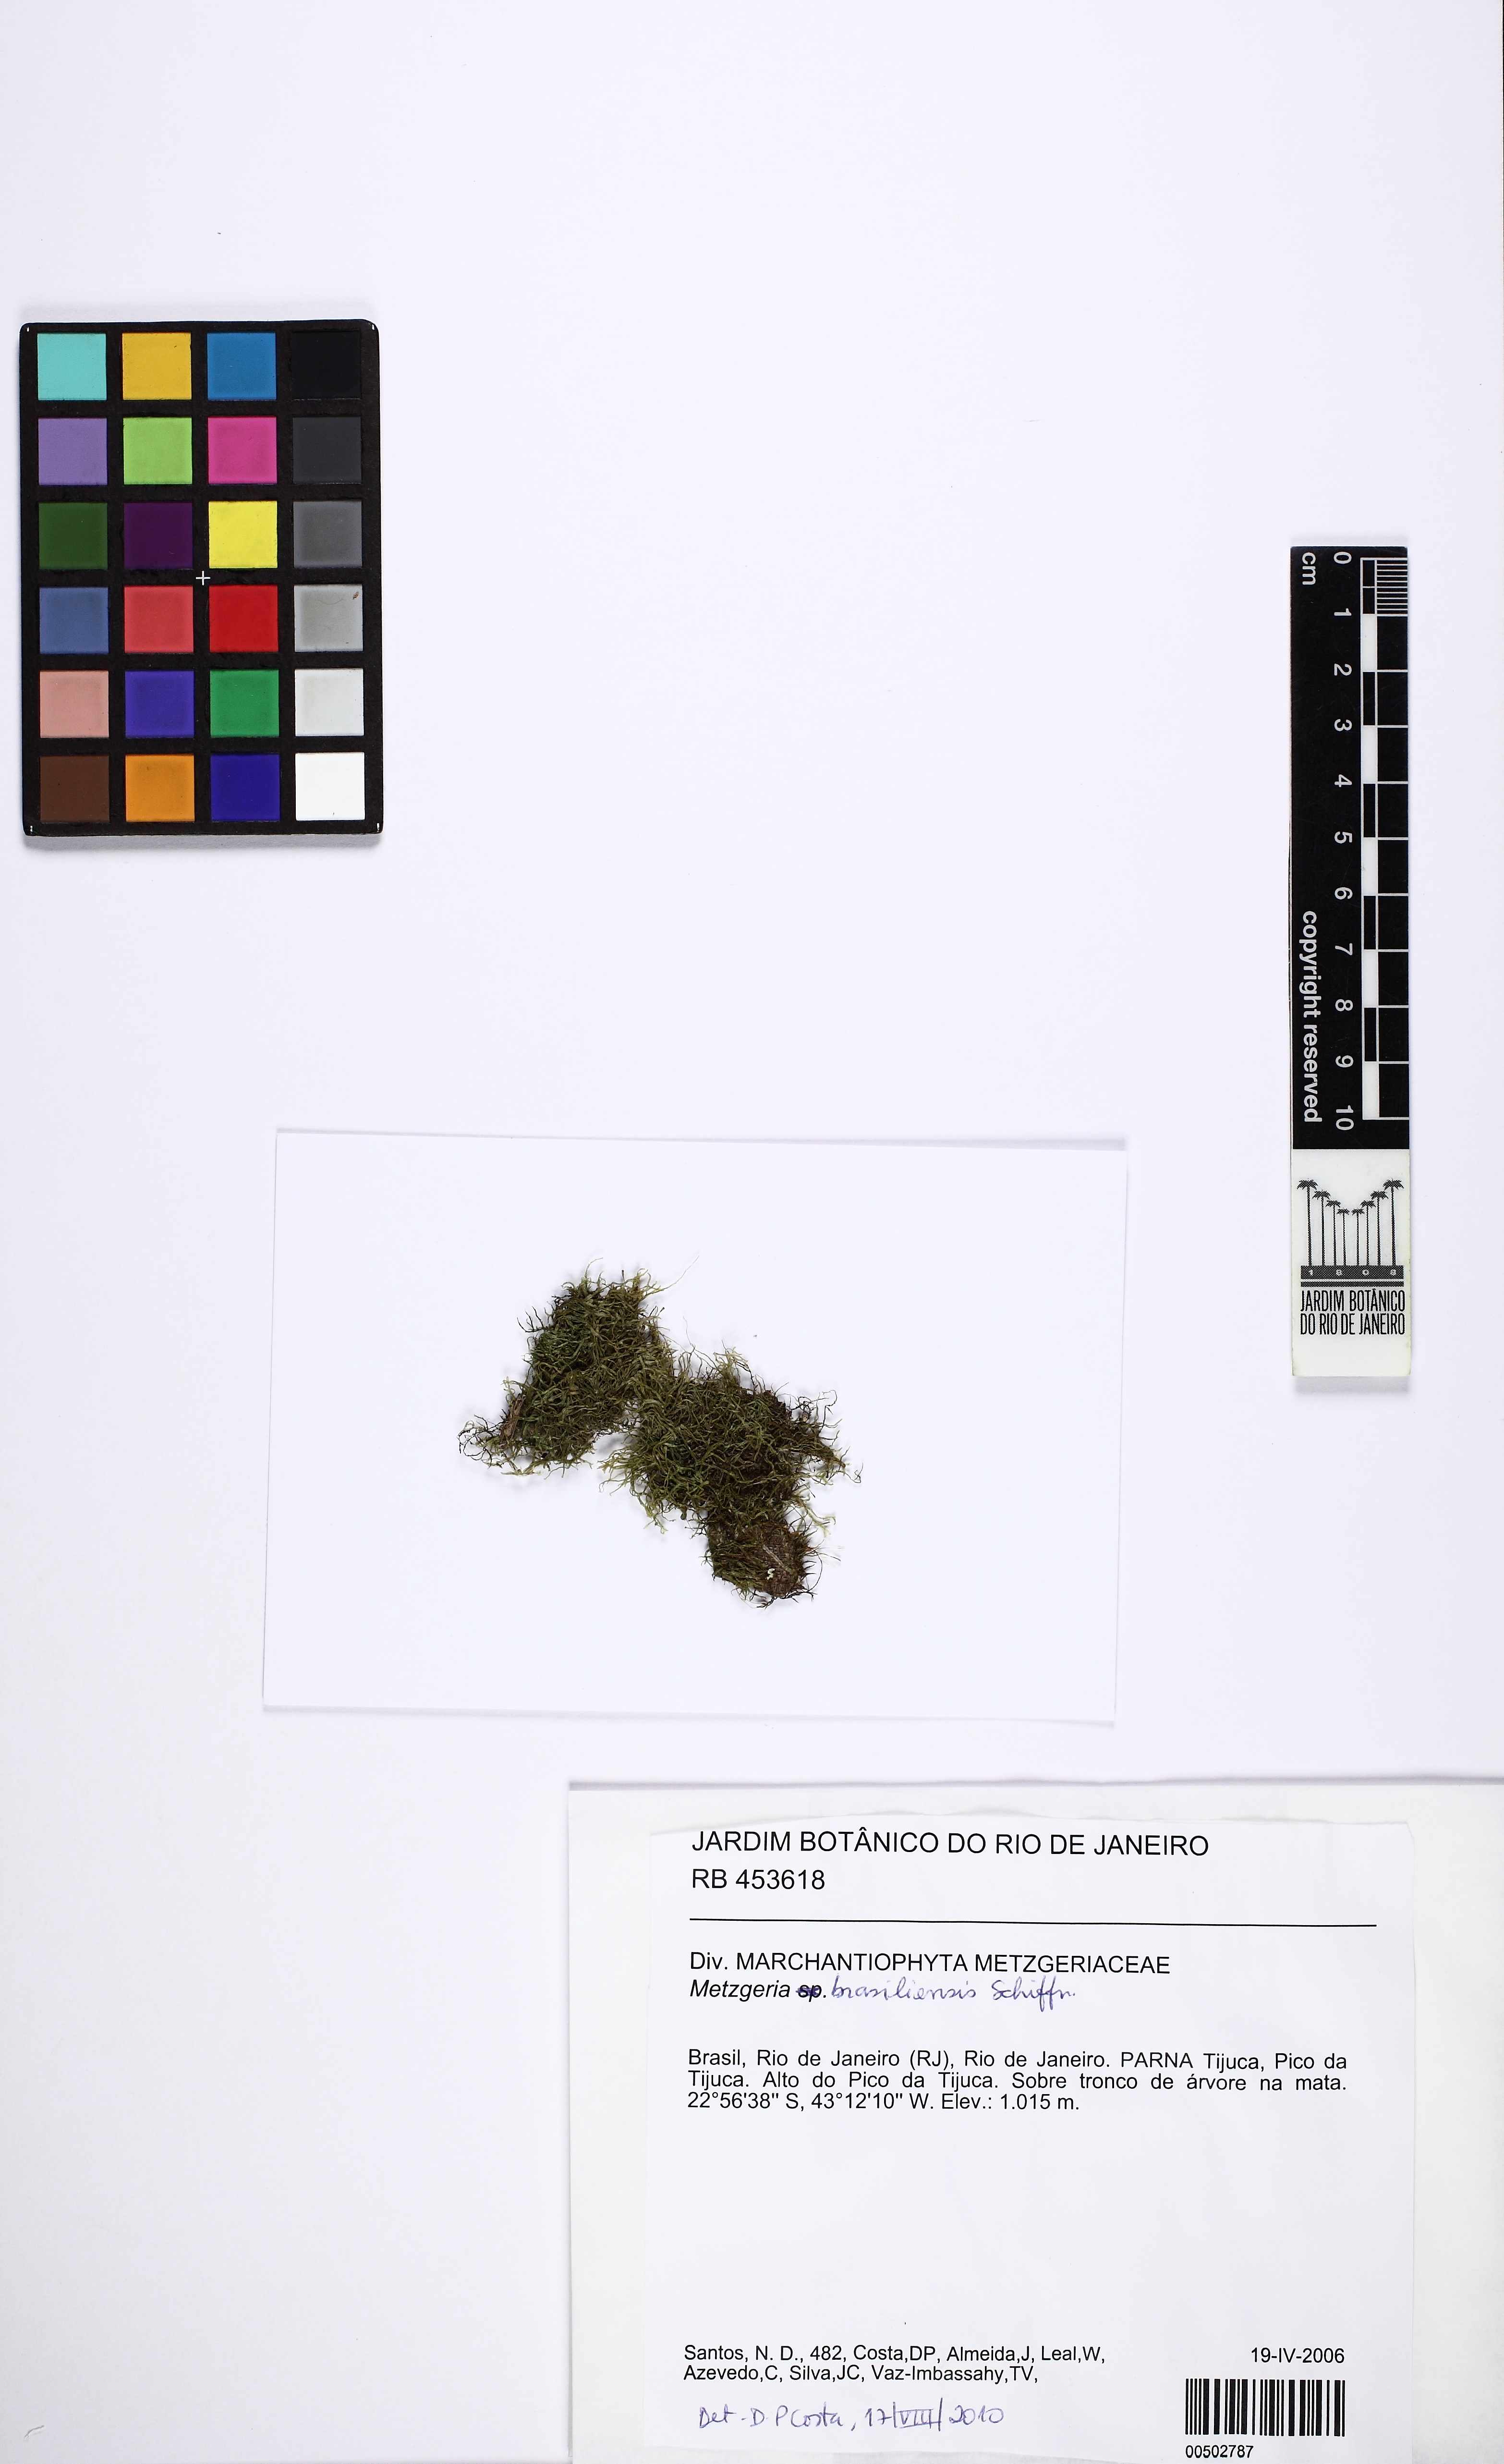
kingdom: Plantae
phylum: Marchantiophyta
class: Jungermanniopsida
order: Metzgeriales
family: Metzgeriaceae
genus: Metzgeria
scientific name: Metzgeria brasiliensis
